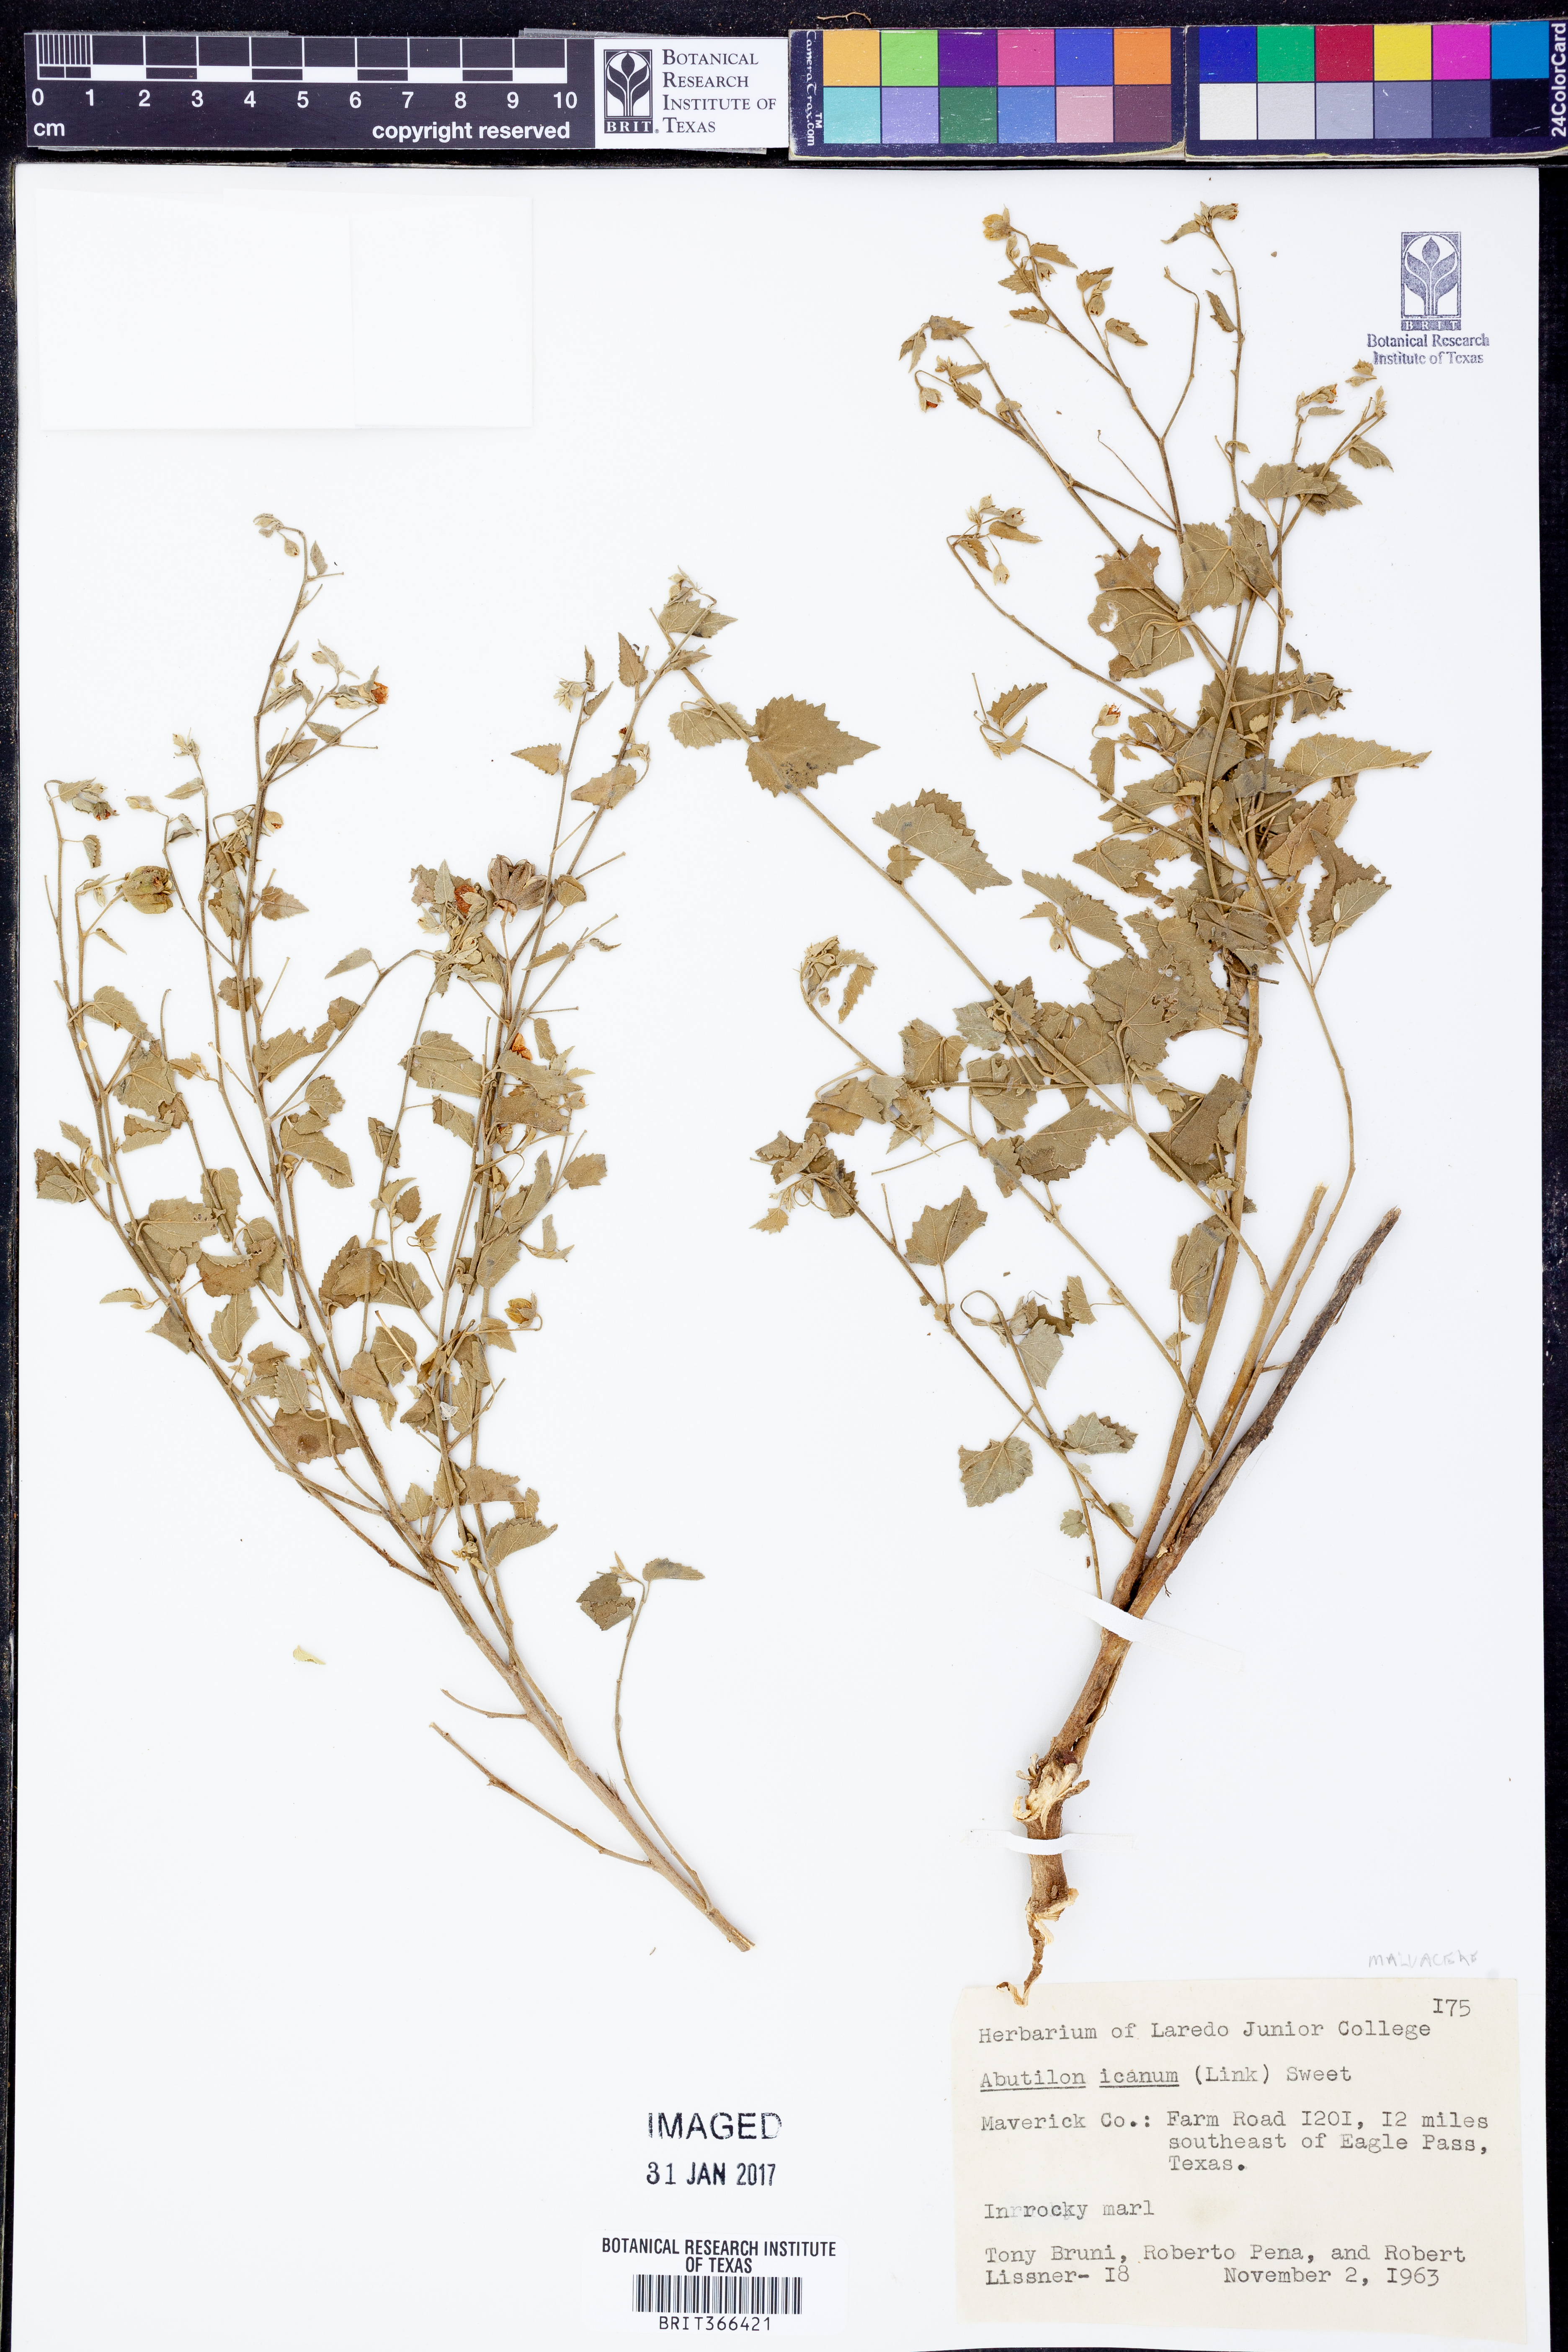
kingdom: Plantae
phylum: Tracheophyta
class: Magnoliopsida
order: Malvales
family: Malvaceae
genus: Abutilon
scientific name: Abutilon incanum
